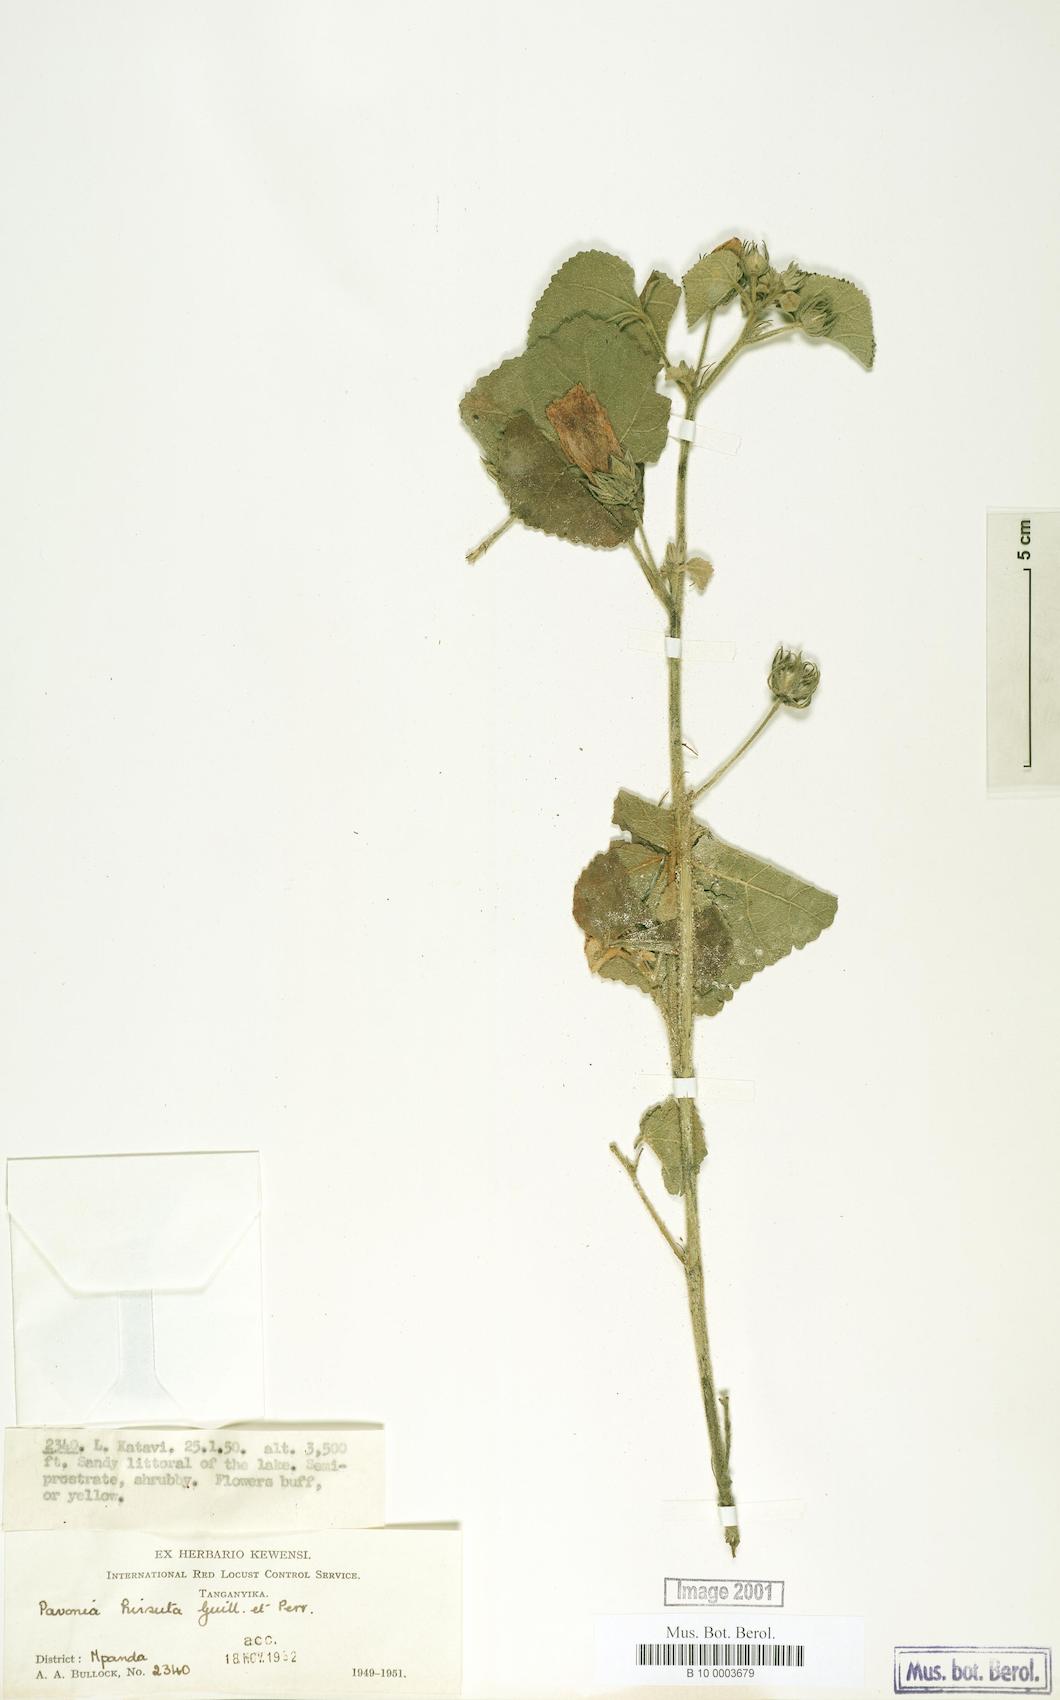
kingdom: Plantae
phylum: Tracheophyta
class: Magnoliopsida
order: Malvales
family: Malvaceae
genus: Pavonia
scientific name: Pavonia senegalensis
